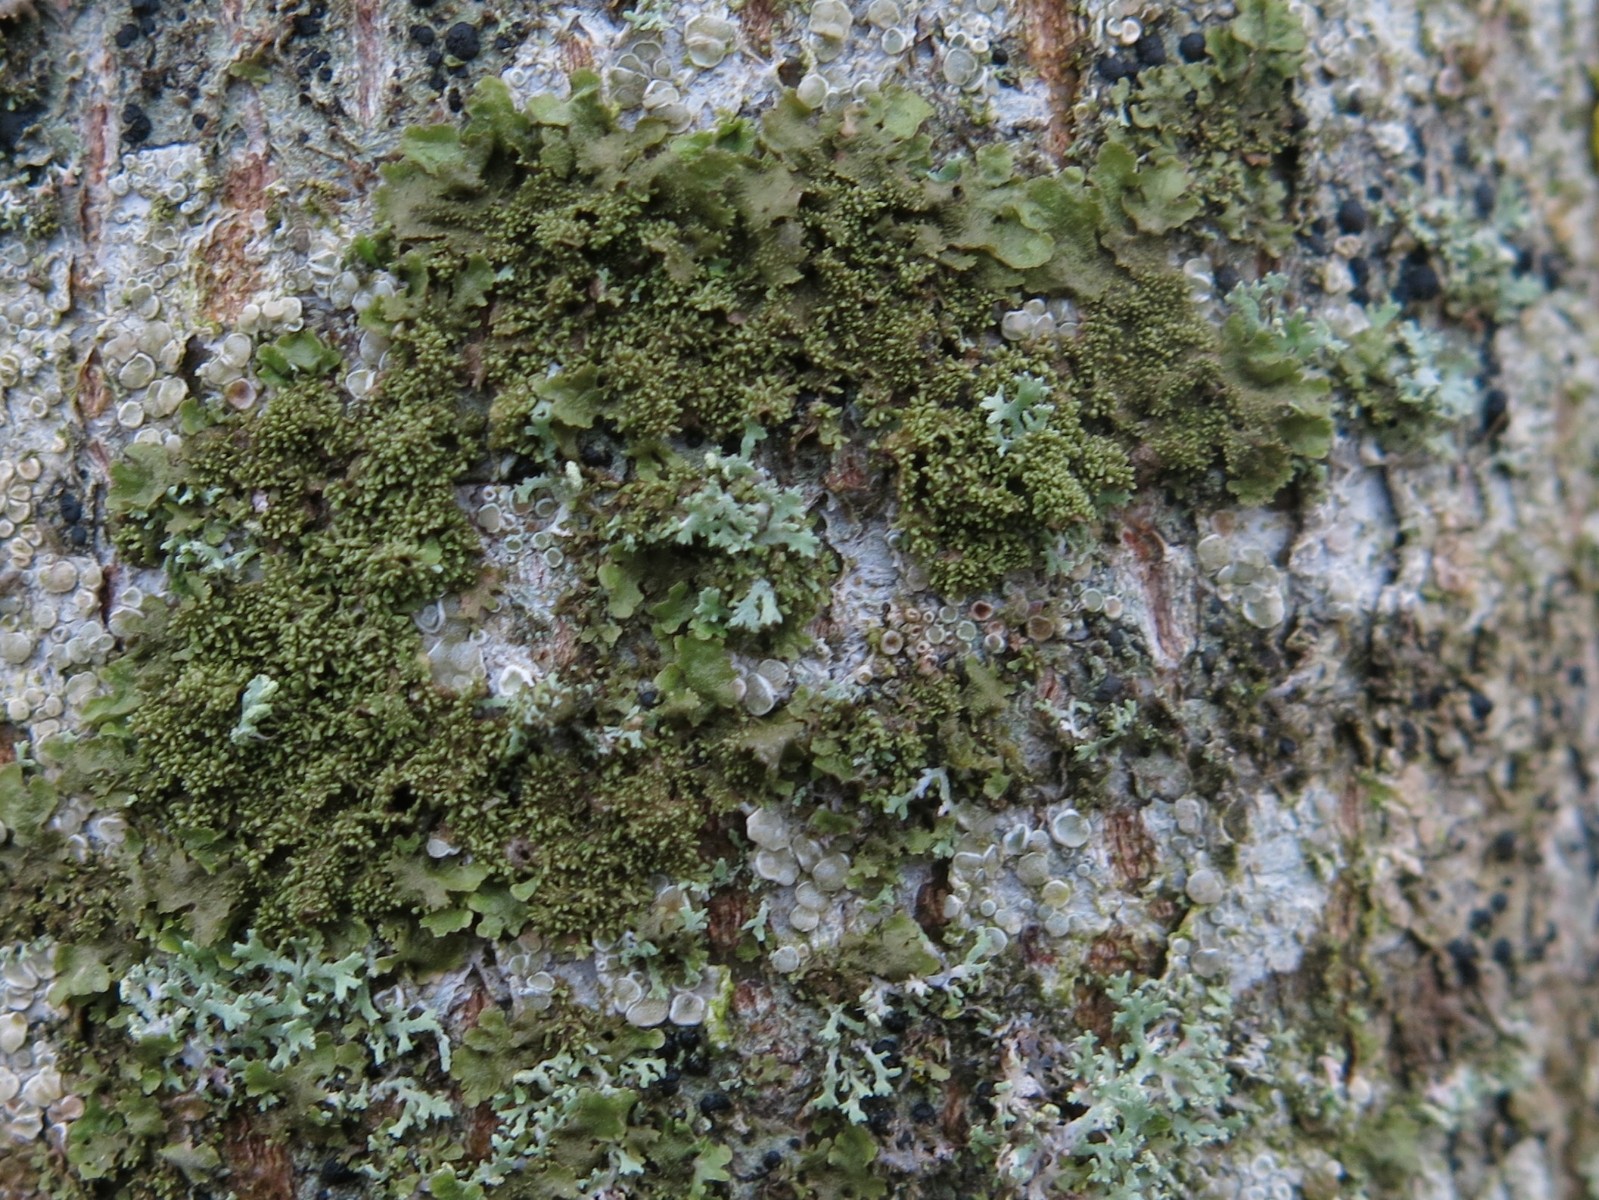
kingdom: Fungi
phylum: Ascomycota
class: Lecanoromycetes
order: Lecanorales
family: Parmeliaceae
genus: Melanohalea
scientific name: Melanohalea exasperatula
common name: kølle-skållav
